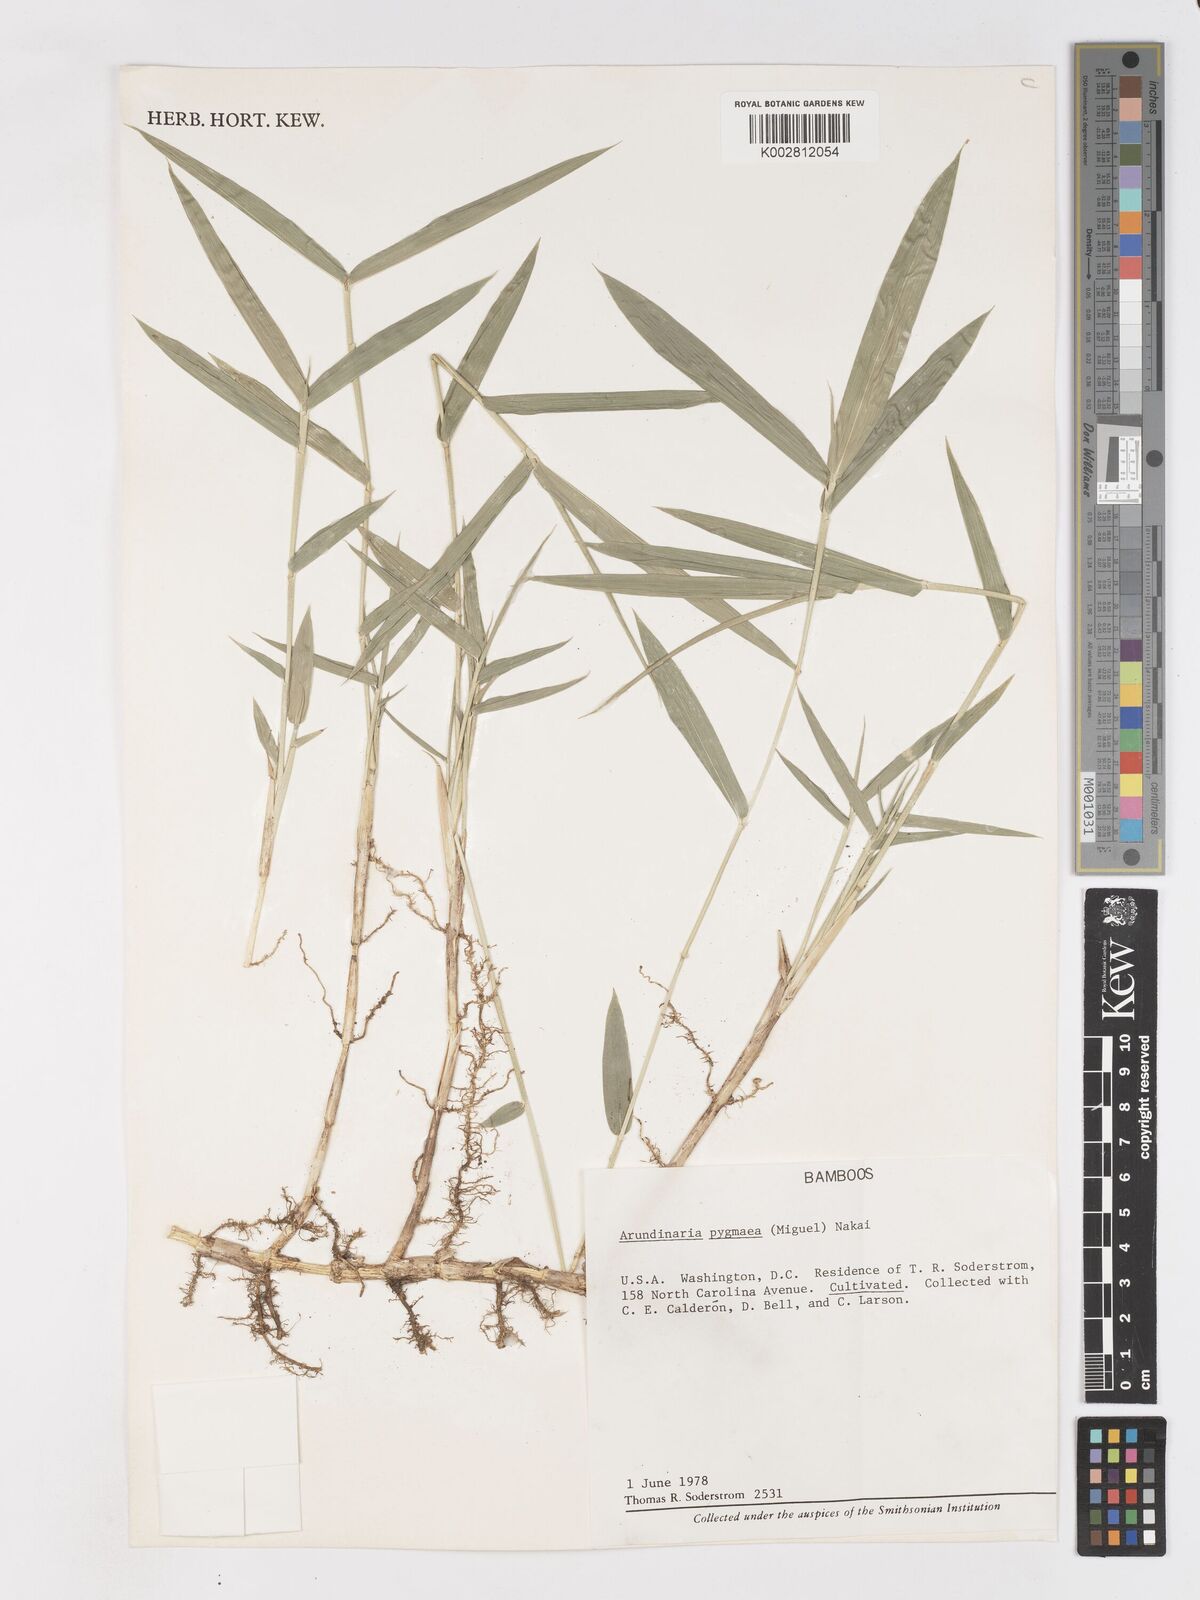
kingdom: Plantae
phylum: Tracheophyta
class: Liliopsida
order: Poales
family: Poaceae
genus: Borinda
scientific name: Borinda pleniculmis
